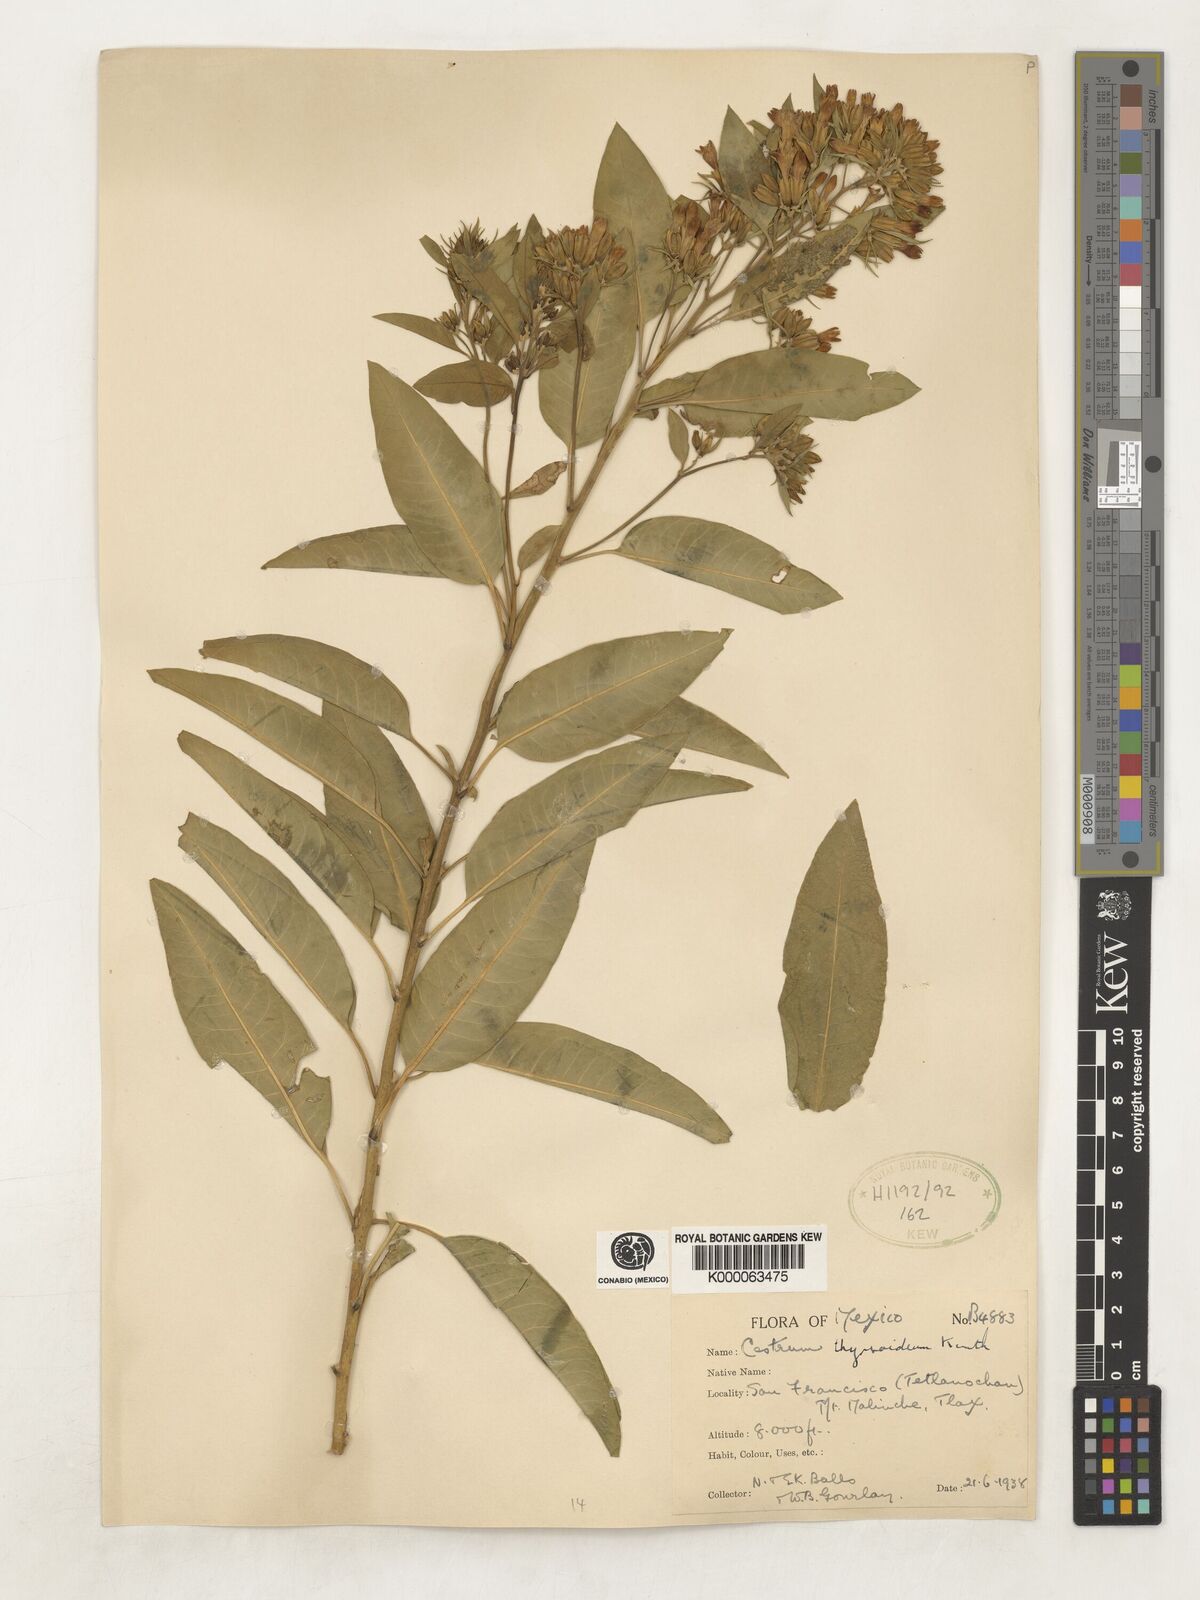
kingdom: Plantae
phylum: Tracheophyta
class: Magnoliopsida
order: Solanales
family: Solanaceae
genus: Cestrum
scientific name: Cestrum
